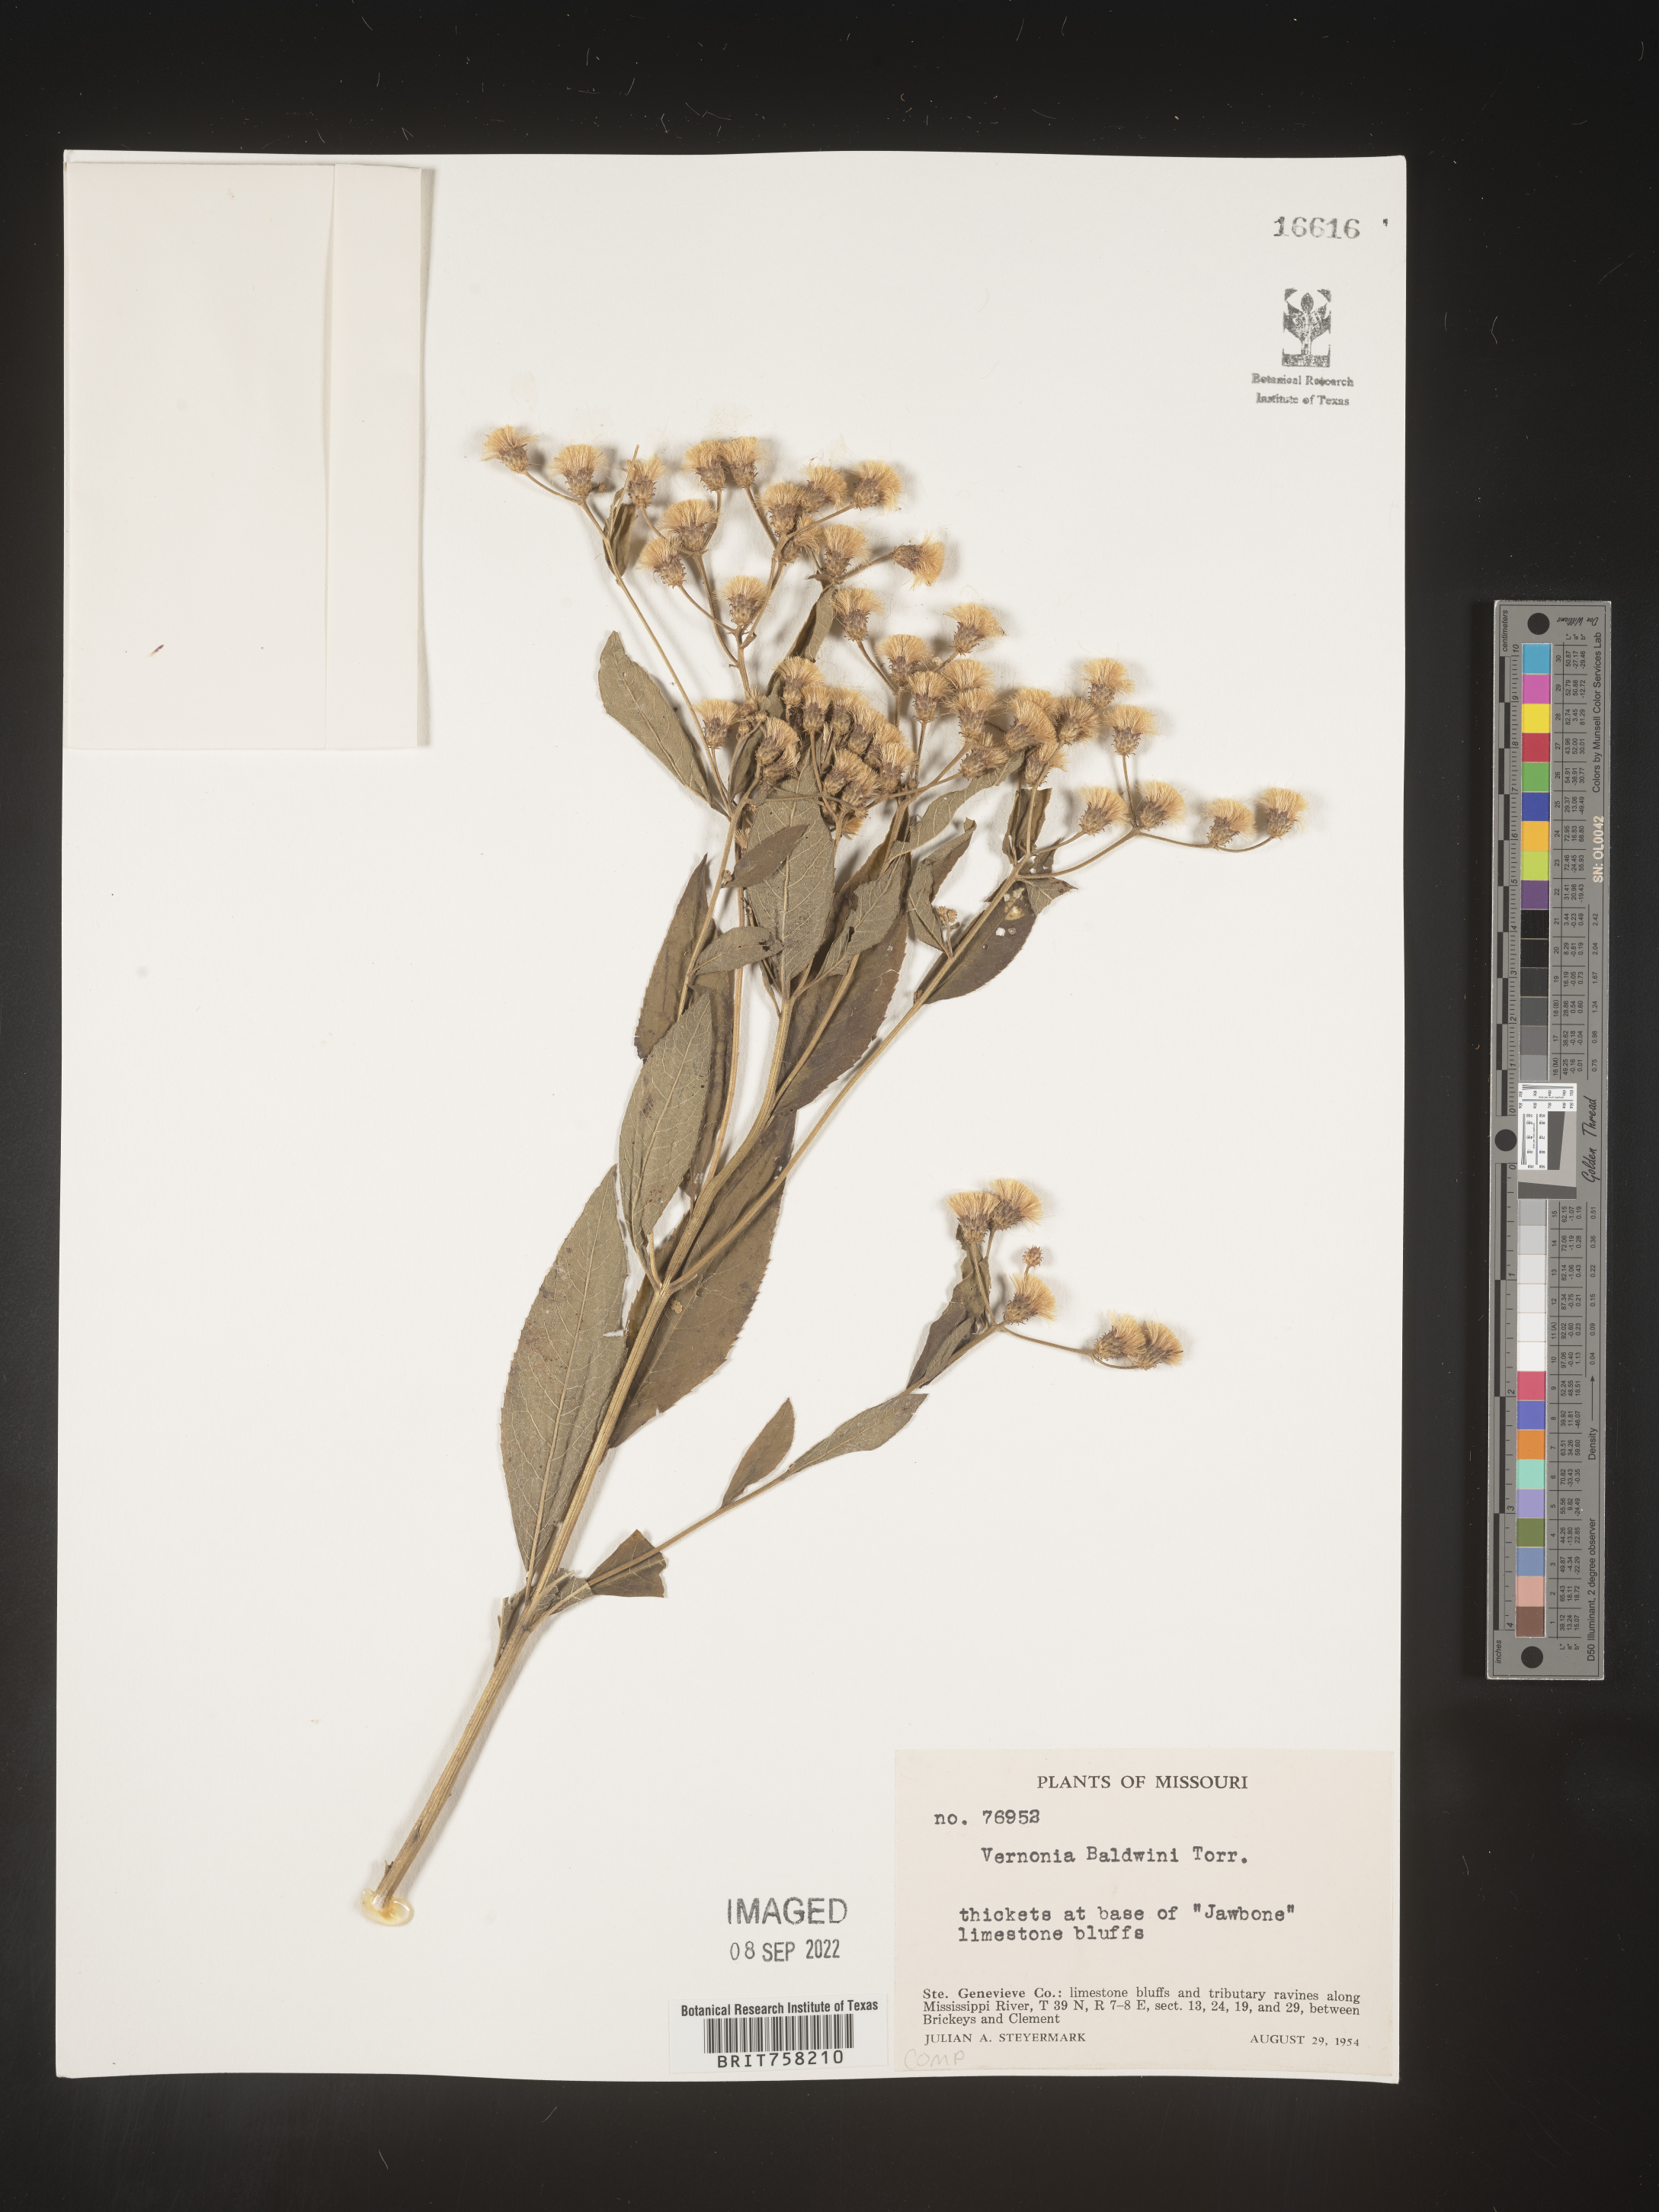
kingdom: Plantae
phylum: Tracheophyta
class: Magnoliopsida
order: Asterales
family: Asteraceae
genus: Vernonia
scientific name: Vernonia baldwinii
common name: Western ironweed
